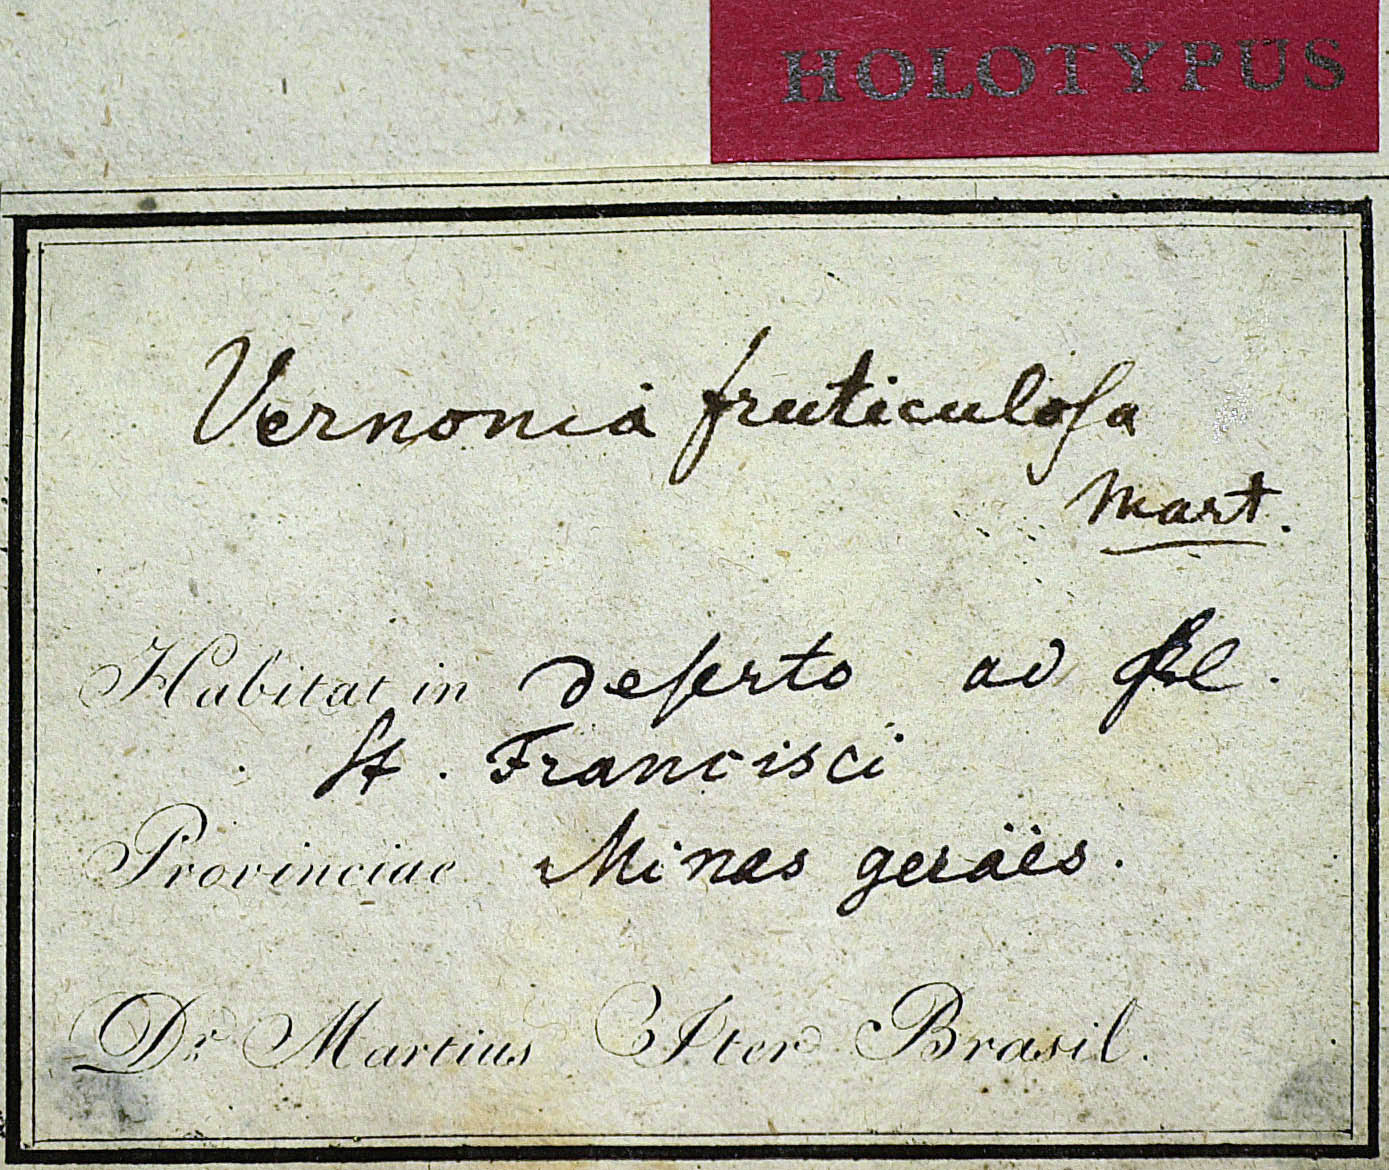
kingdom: Plantae
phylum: Tracheophyta
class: Magnoliopsida
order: Asterales
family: Asteraceae
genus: Lepidaploa
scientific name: Lepidaploa rufogrisea
